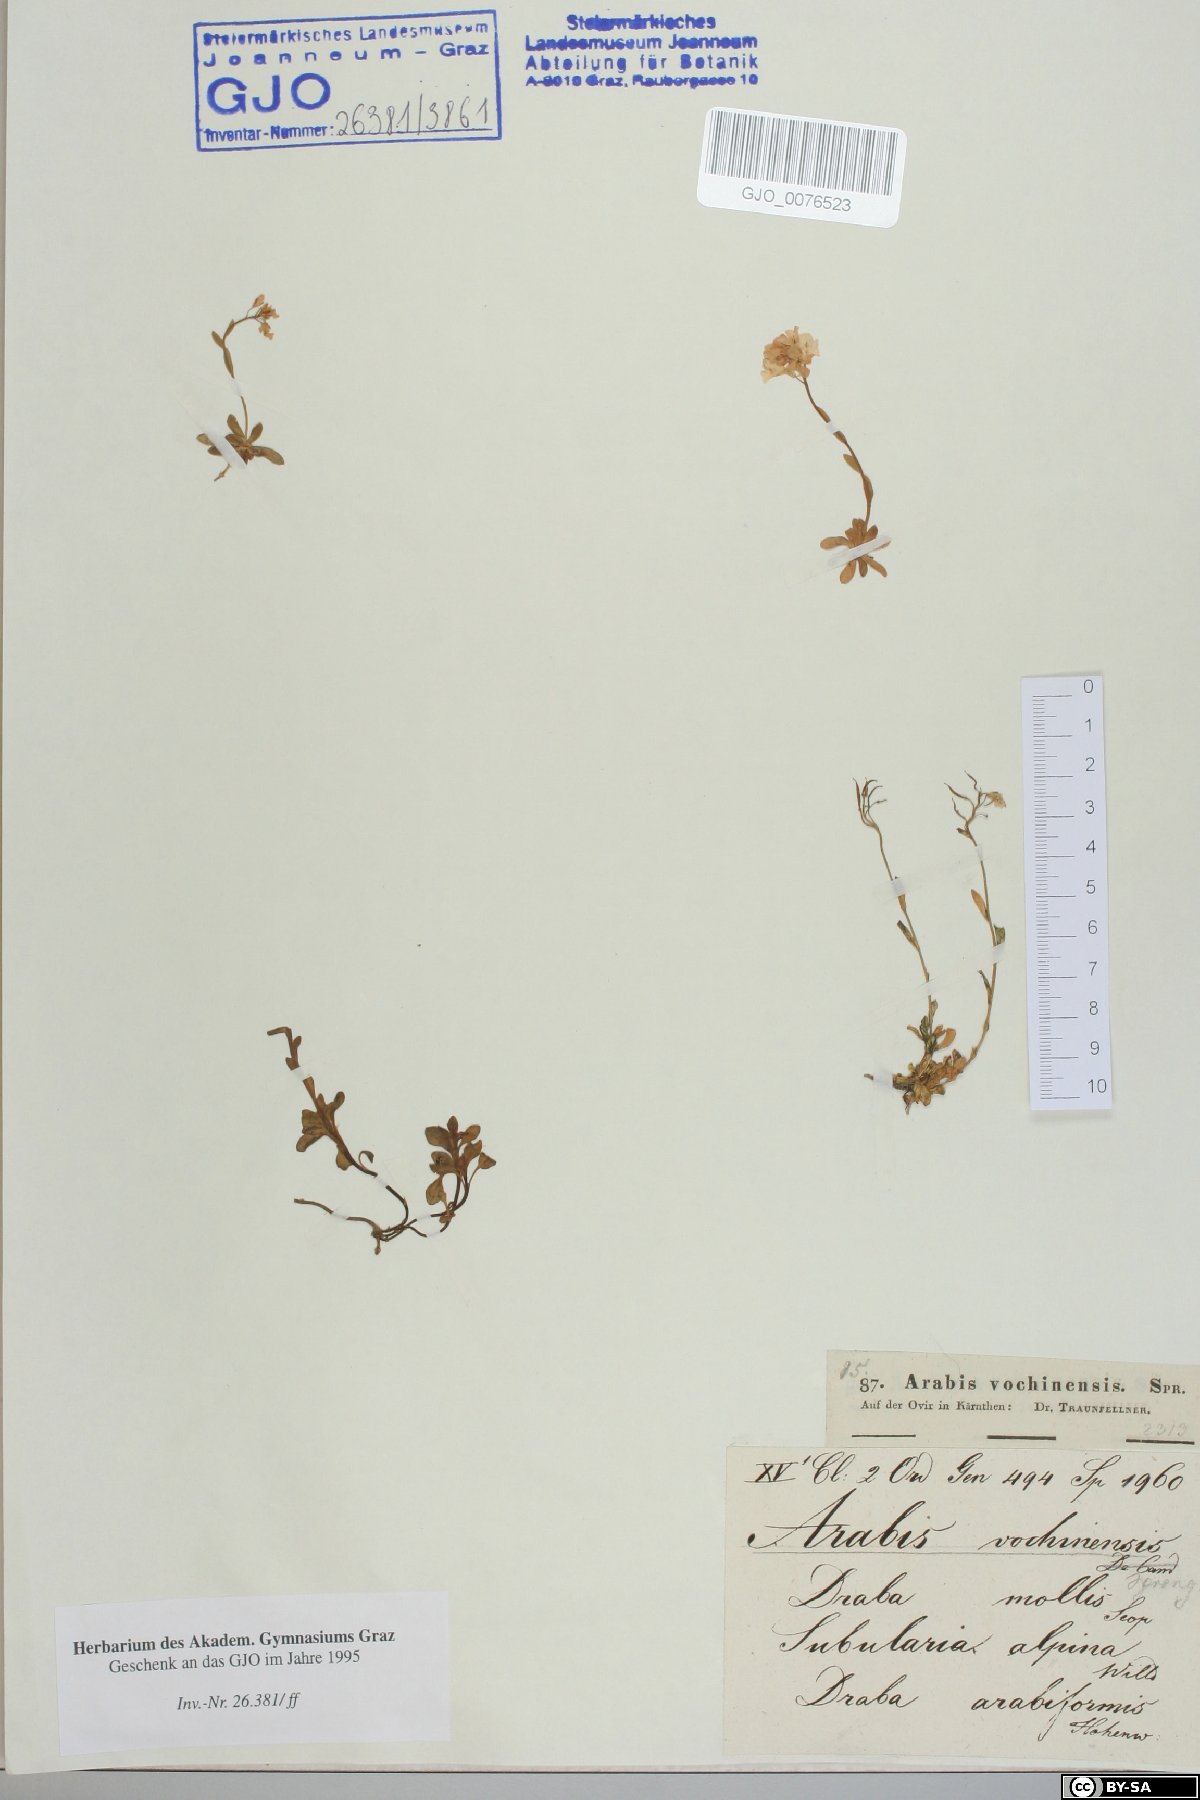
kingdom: Plantae
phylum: Tracheophyta
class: Magnoliopsida
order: Brassicales
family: Brassicaceae
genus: Arabis
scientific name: Arabis vochinensis
